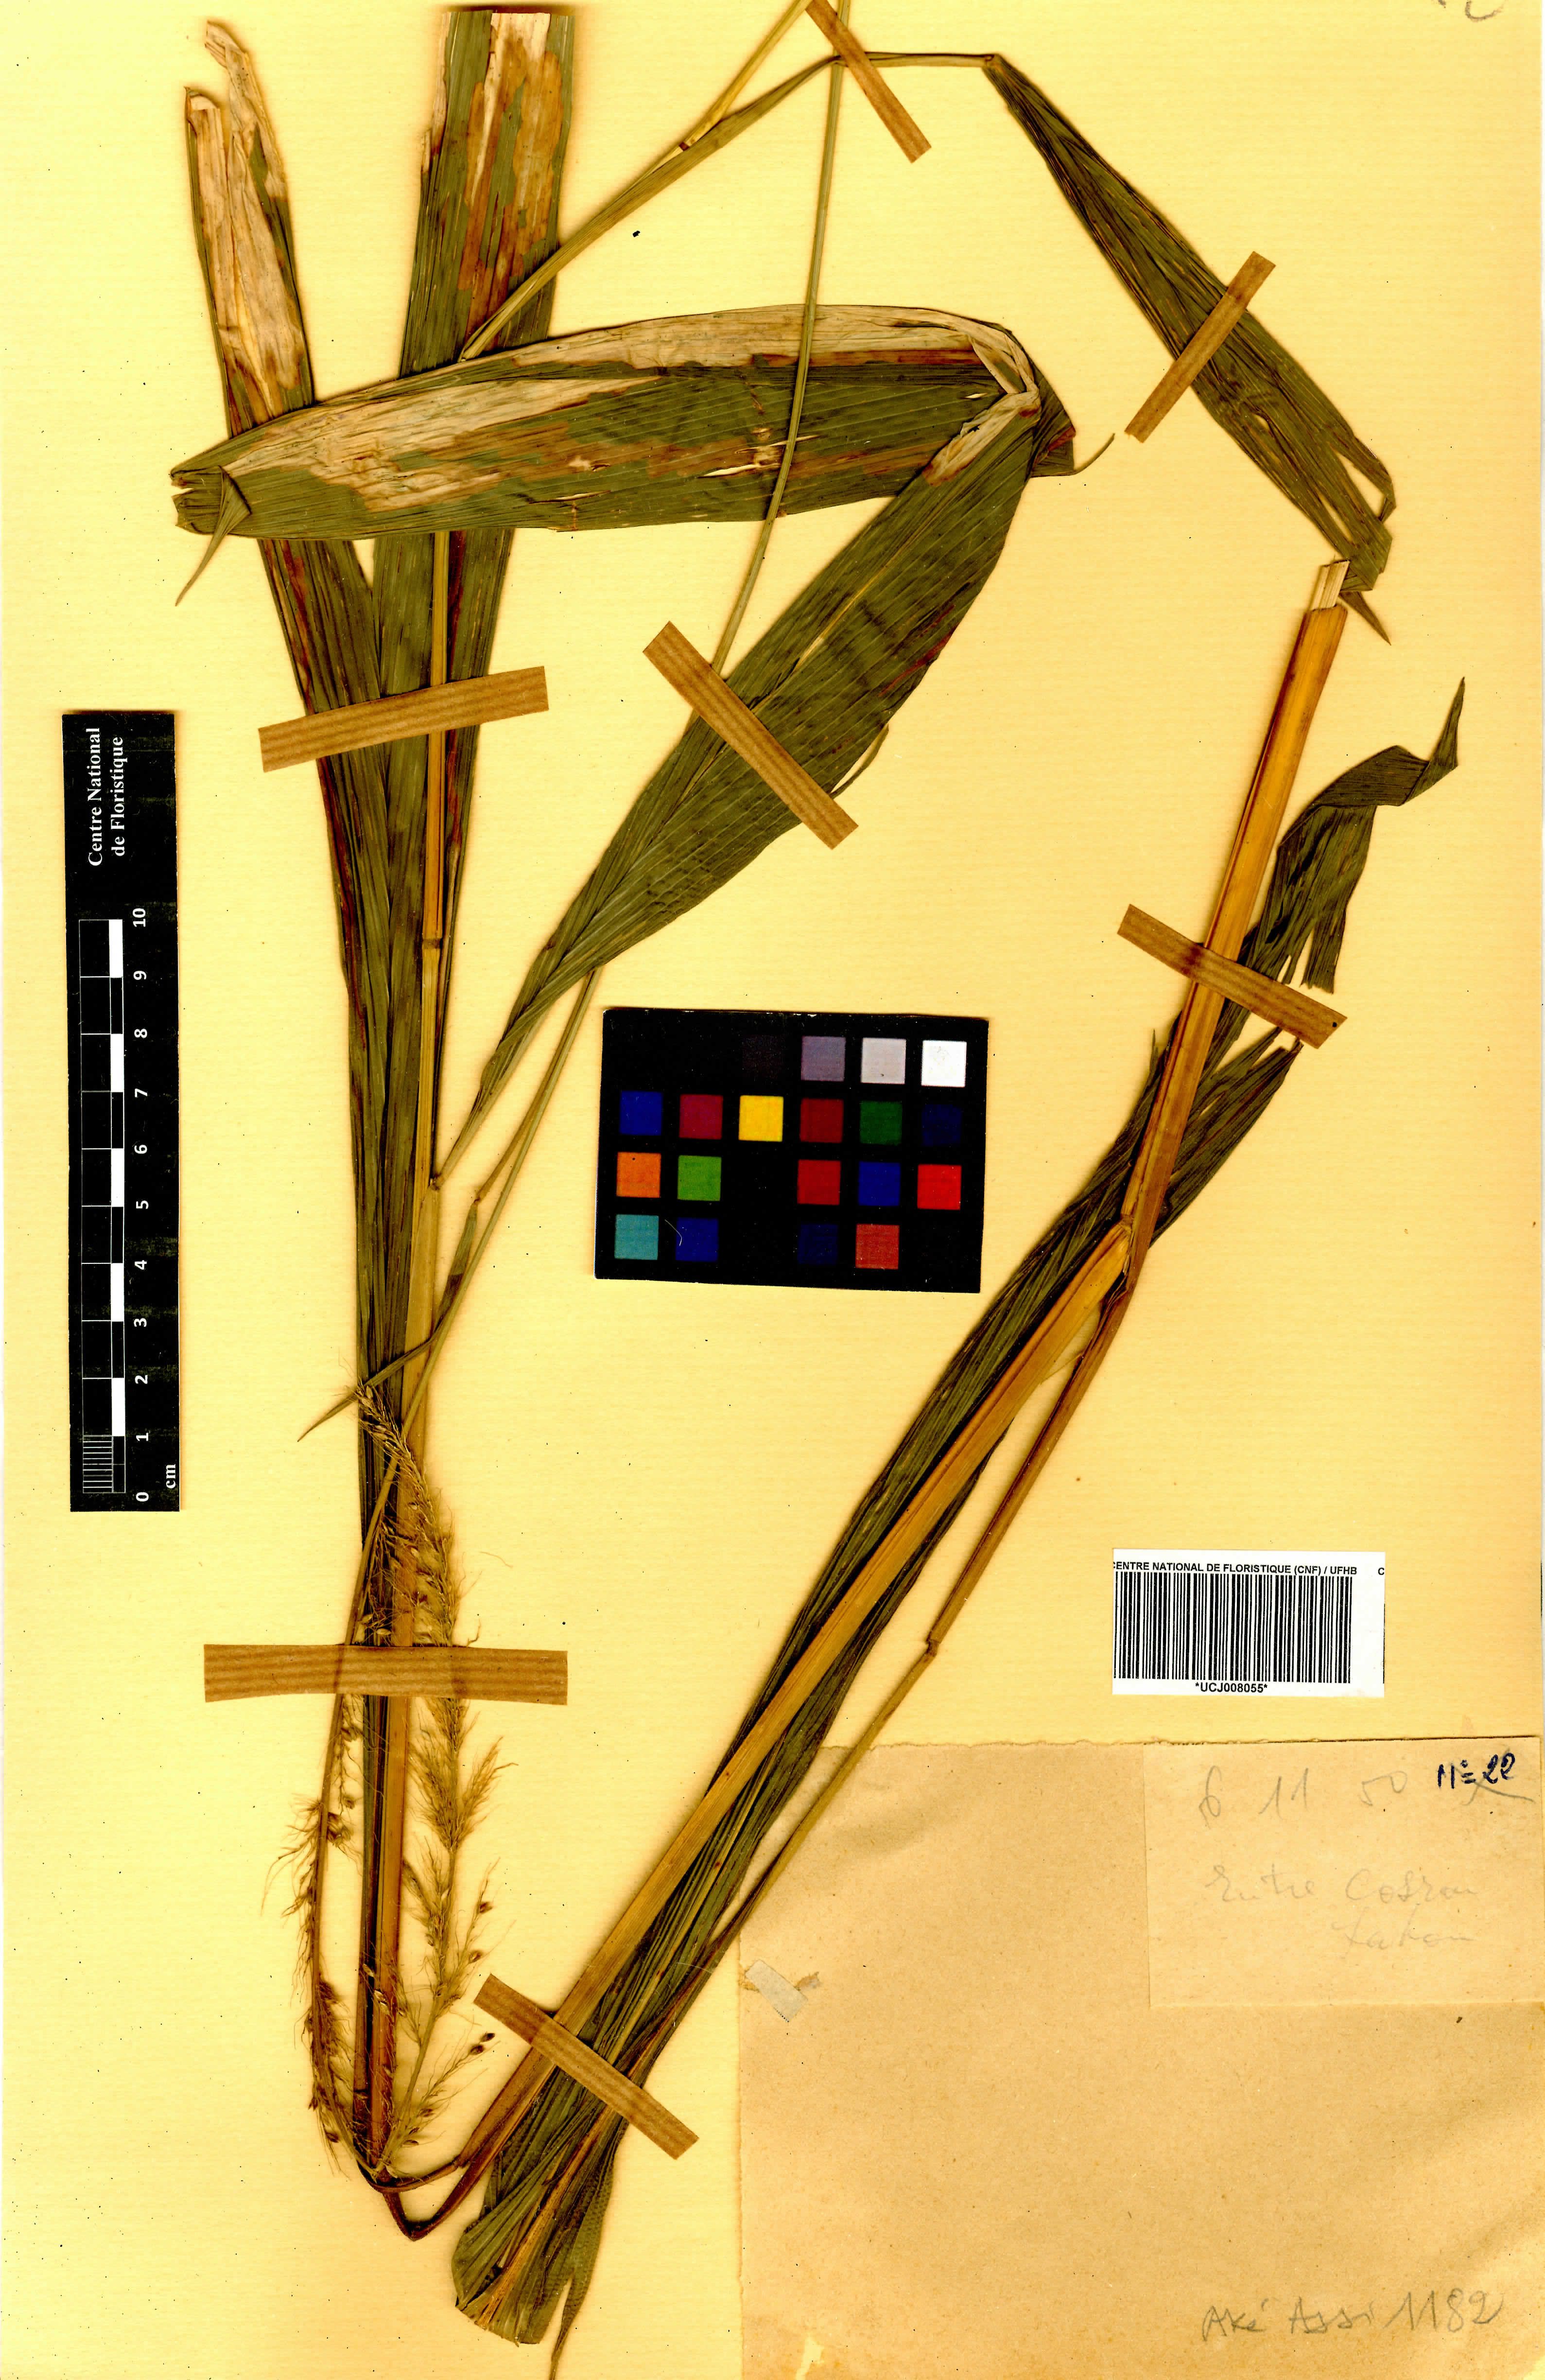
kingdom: Plantae
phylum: Tracheophyta
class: Liliopsida
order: Poales
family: Poaceae
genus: Setaria
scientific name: Setaria megaphylla
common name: Bigleaf bristlegrass
